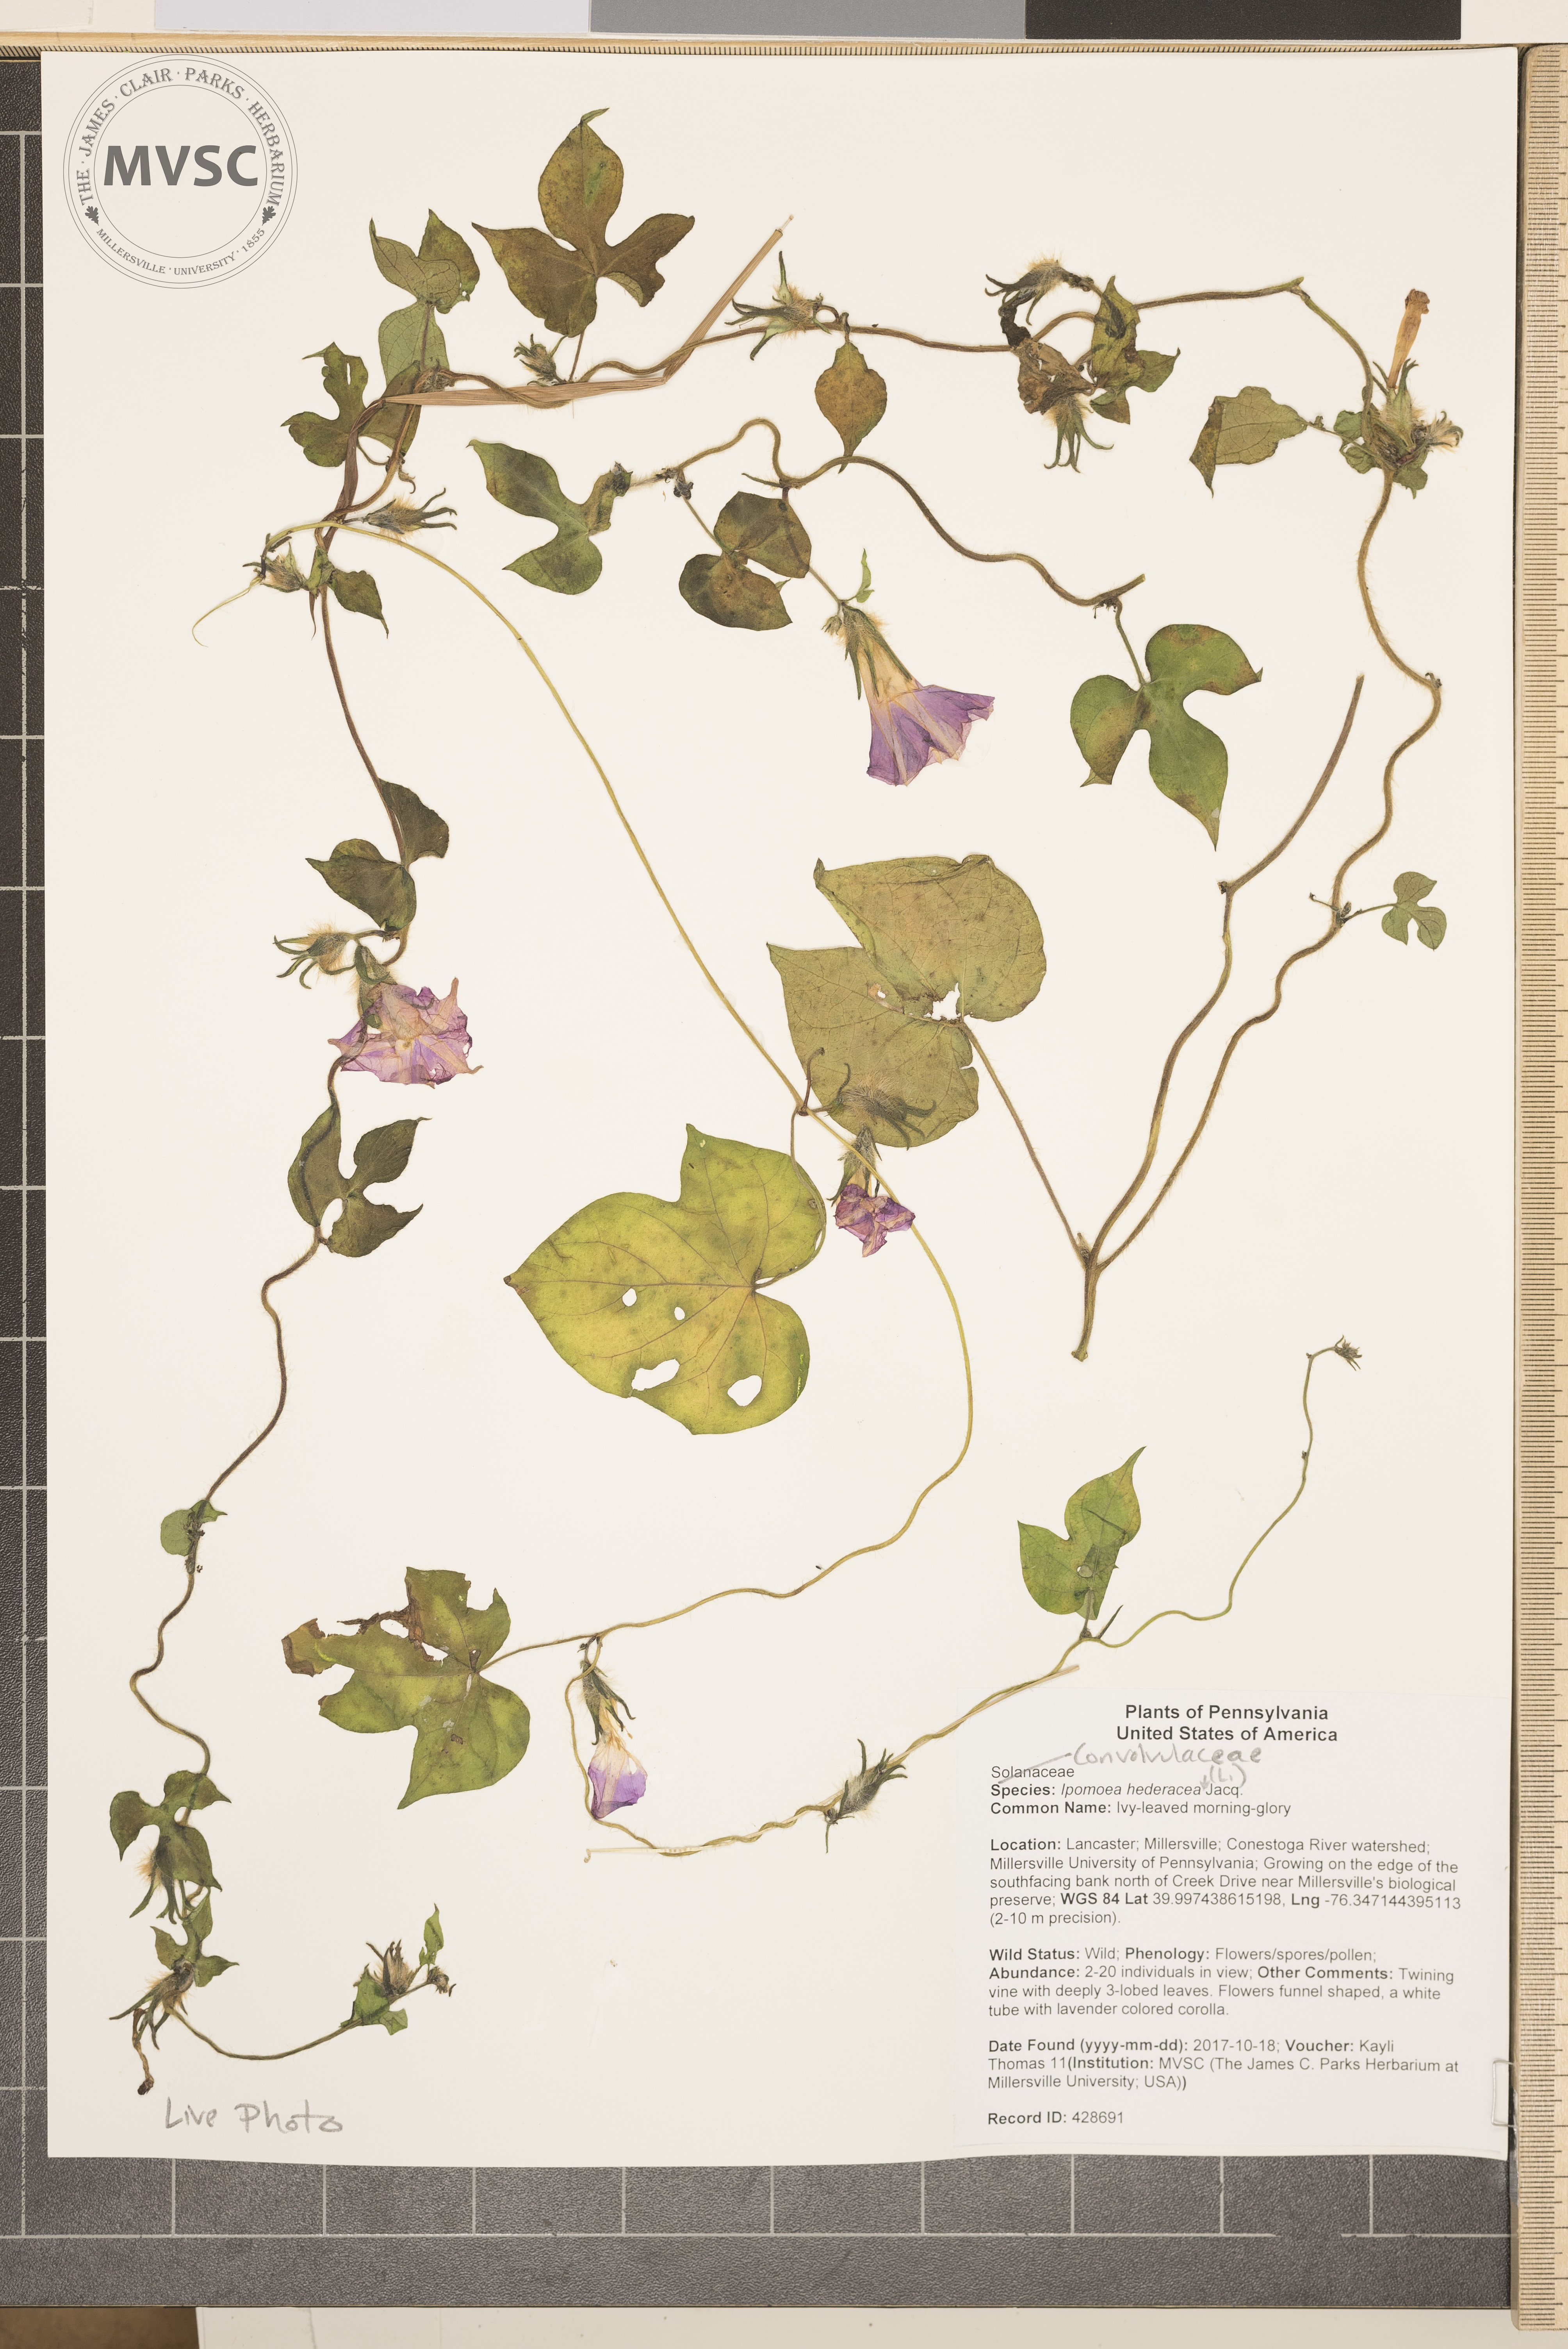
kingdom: Plantae
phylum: Tracheophyta
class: Magnoliopsida
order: Solanales
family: Convolvulaceae
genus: Ipomoea
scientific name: Ipomoea hederacea
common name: Ivy-leaved morning-glory
